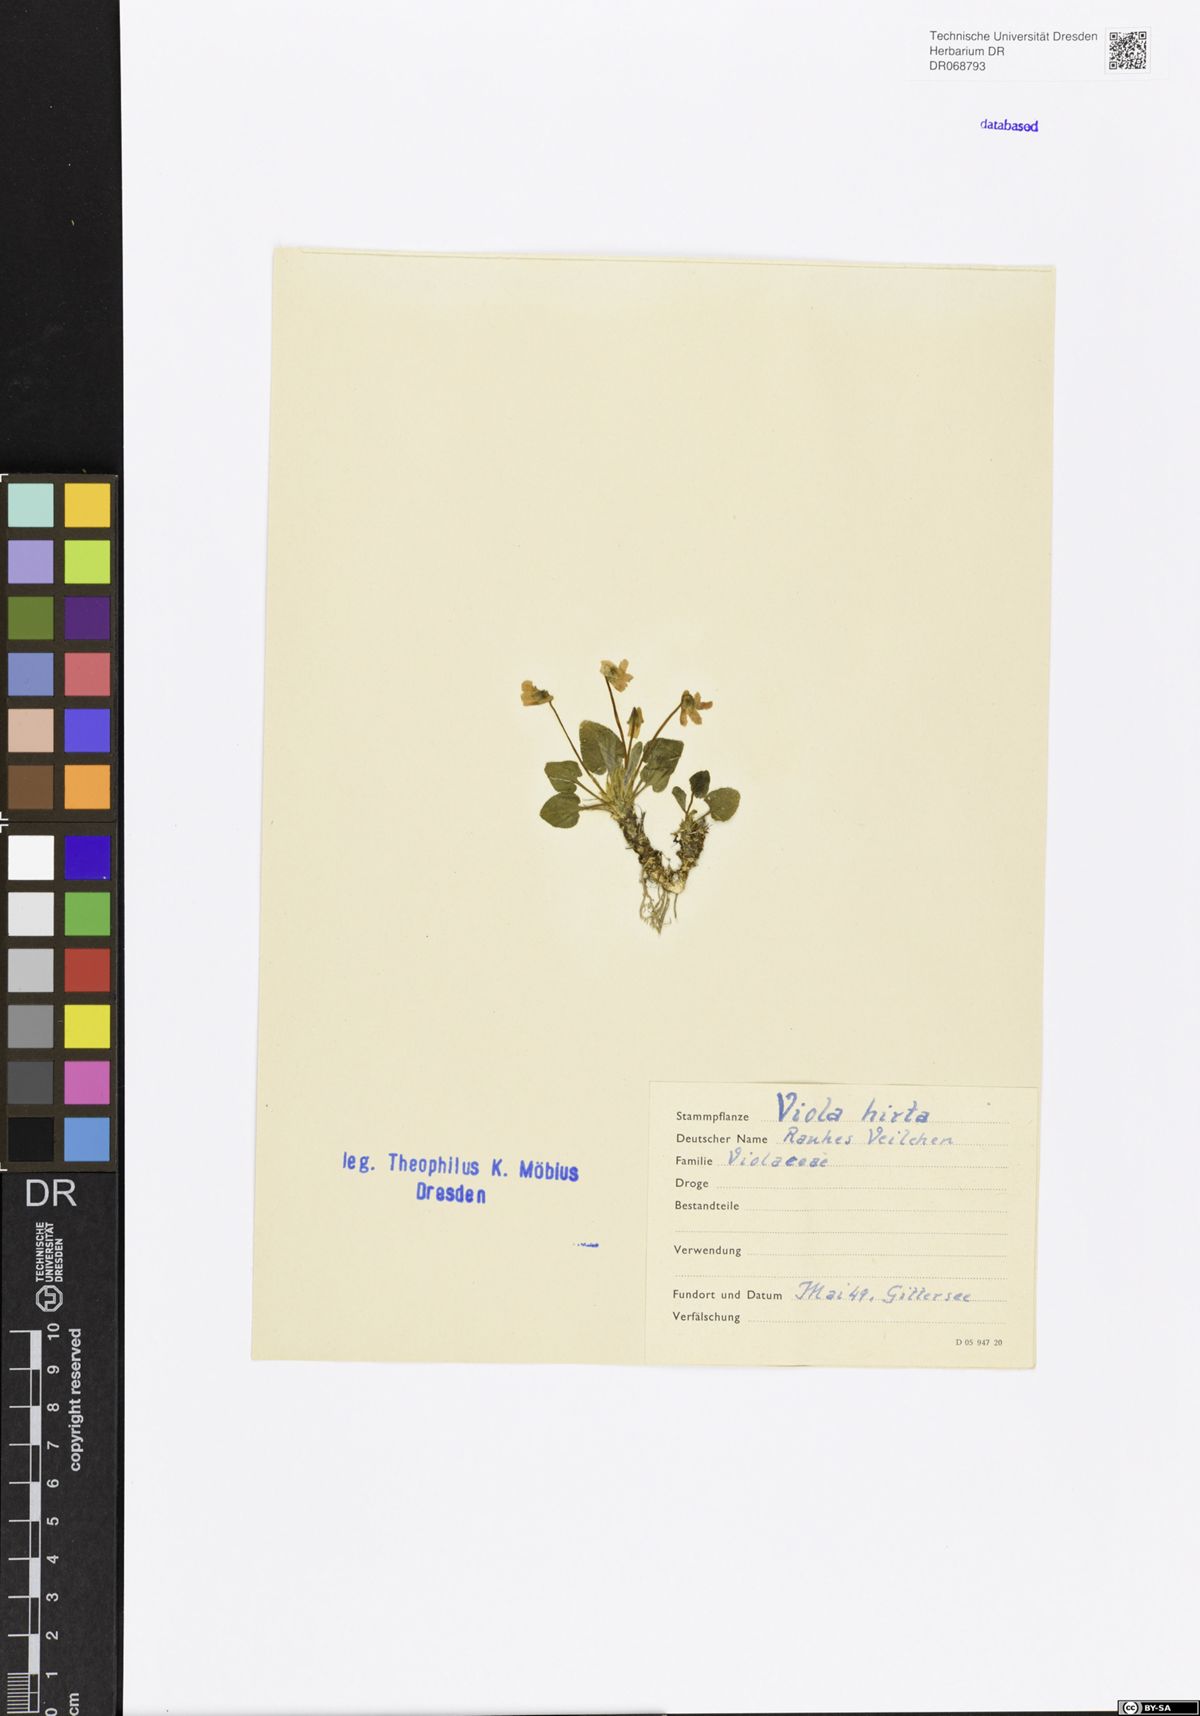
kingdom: Plantae
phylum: Tracheophyta
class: Magnoliopsida
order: Malpighiales
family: Violaceae
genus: Viola
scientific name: Viola hirta
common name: Hairy violet
